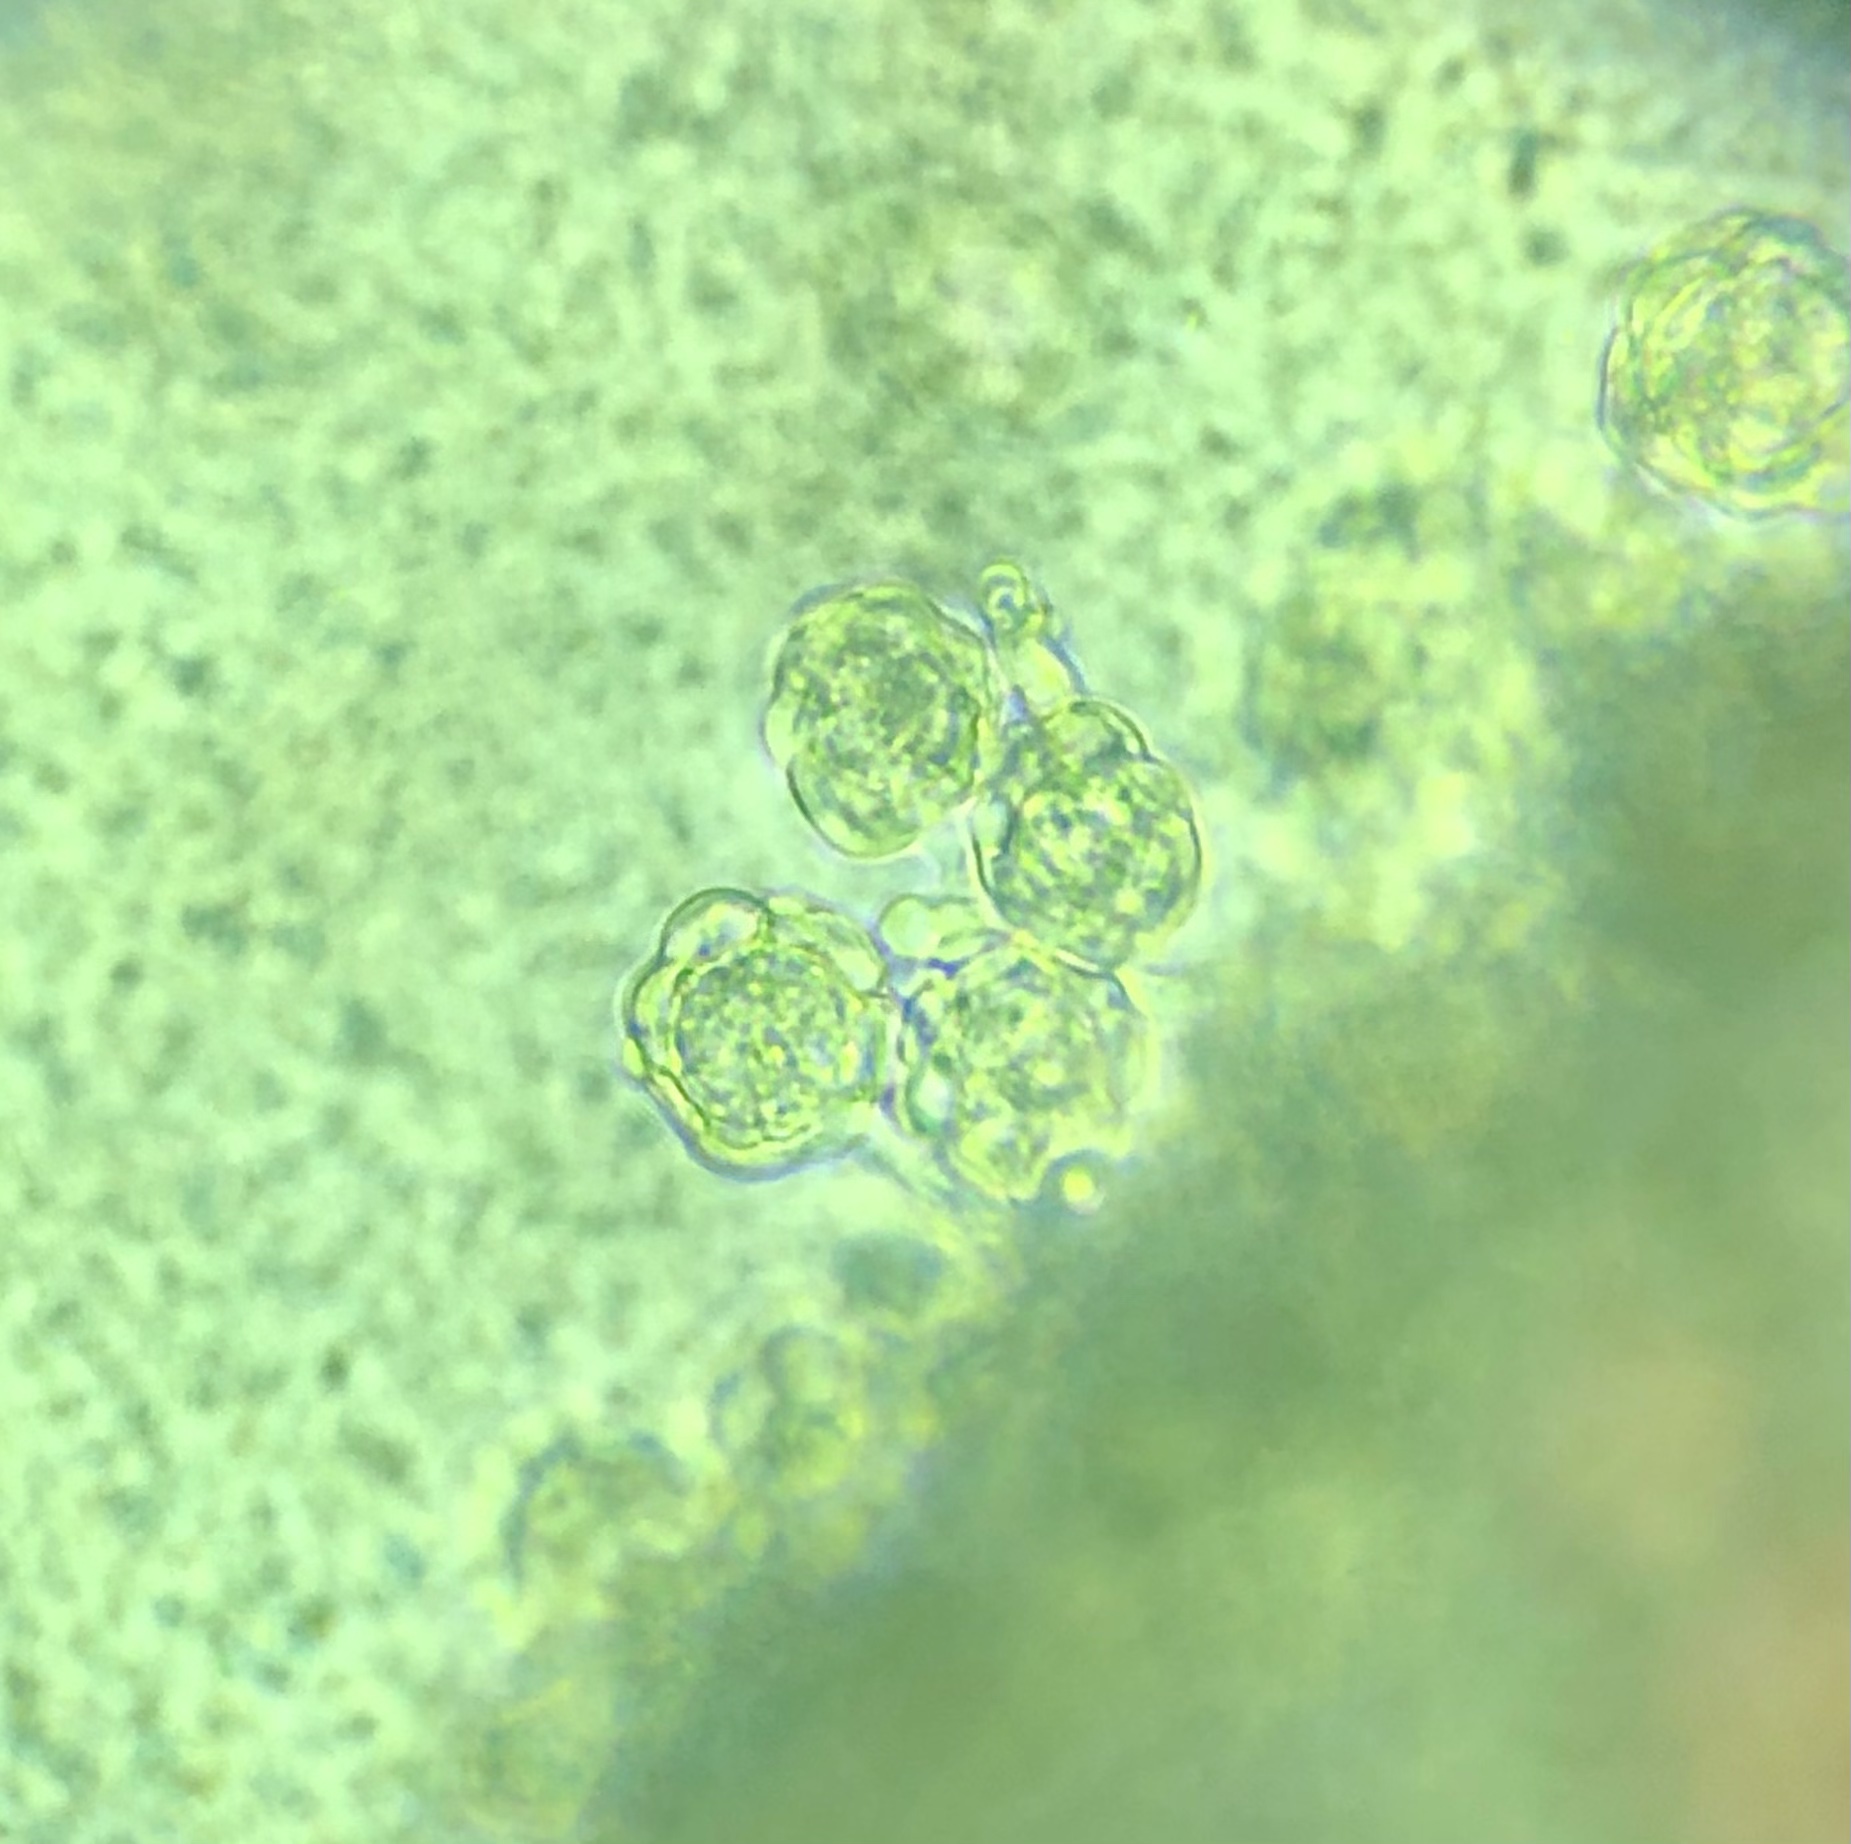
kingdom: Fungi
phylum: Ascomycota
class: Sordariomycetes
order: Hypocreales
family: Hypocreaceae
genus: Hypomyces
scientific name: Hypomyces papulasporae
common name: jordtunge-snylteskorpe
